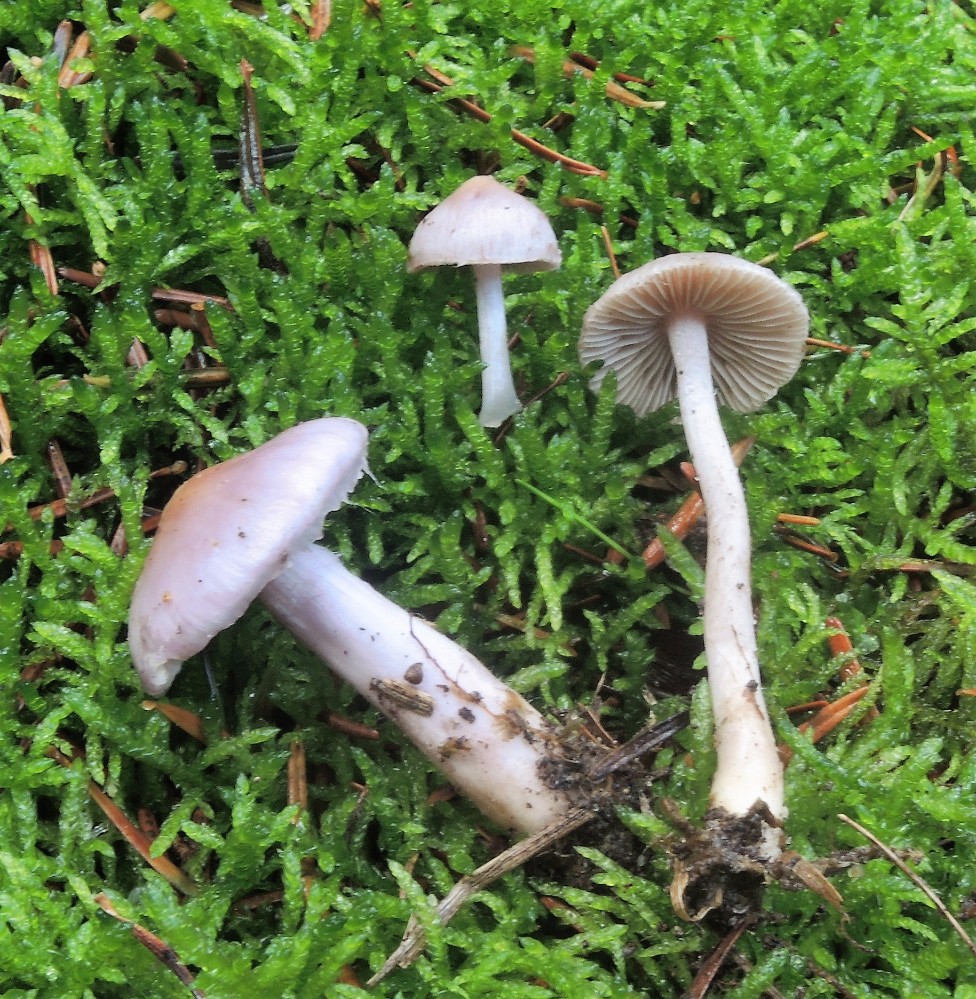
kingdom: Fungi
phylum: Basidiomycota
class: Agaricomycetes
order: Agaricales
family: Inocybaceae
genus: Inocybe
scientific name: Inocybe geophylla
